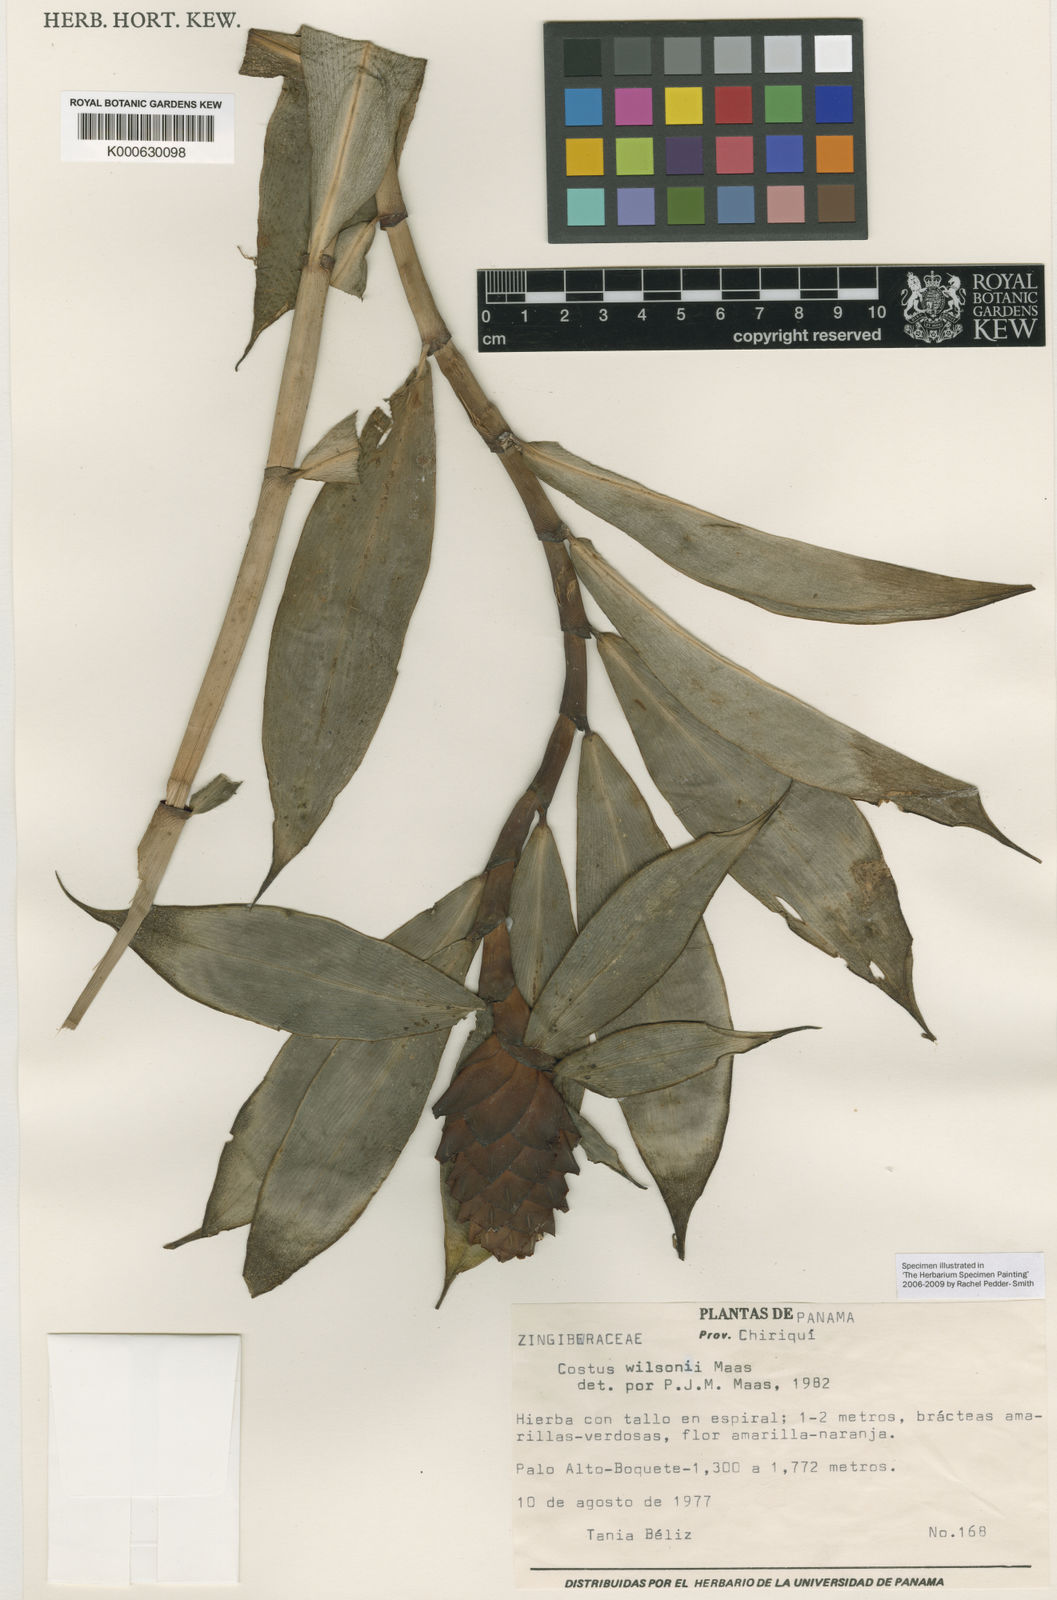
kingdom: Plantae
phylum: Tracheophyta
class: Liliopsida
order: Zingiberales
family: Costaceae
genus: Costus
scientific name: Costus wilsonii
